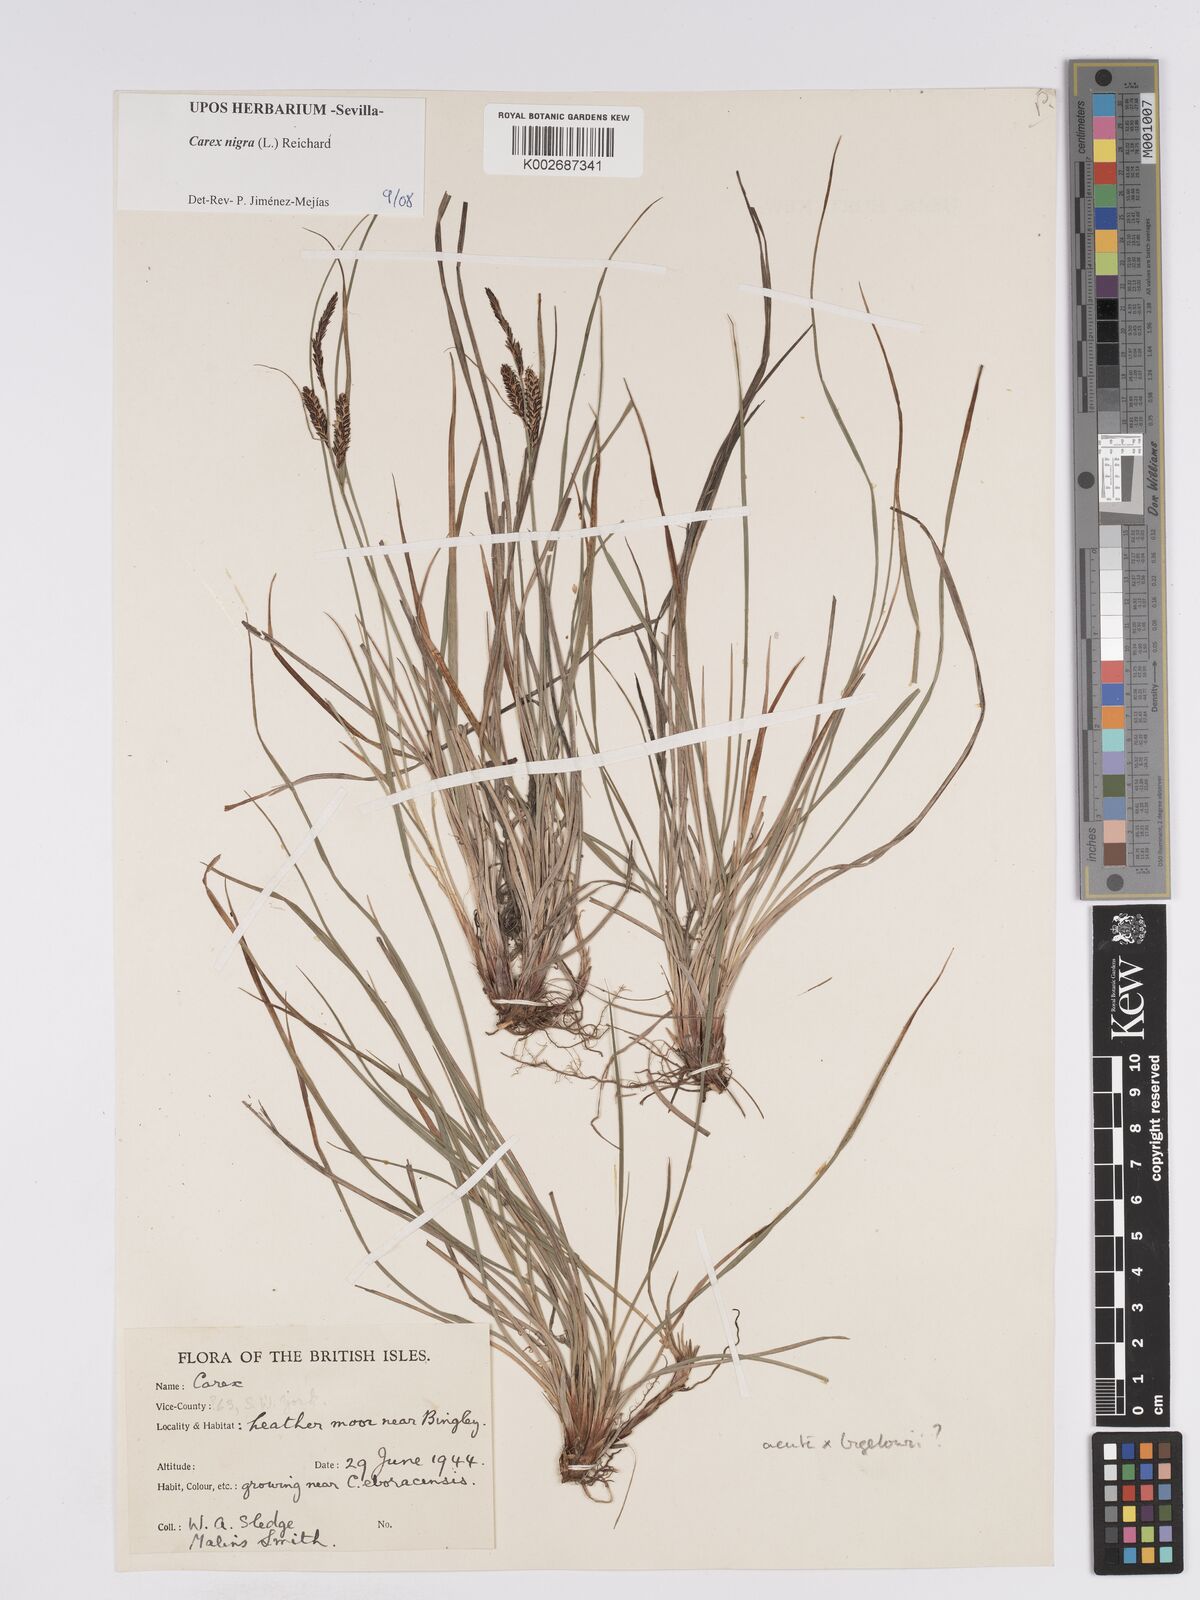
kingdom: Plantae
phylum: Tracheophyta
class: Liliopsida
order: Poales
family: Cyperaceae
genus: Carex
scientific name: Carex nigra
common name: Common sedge
